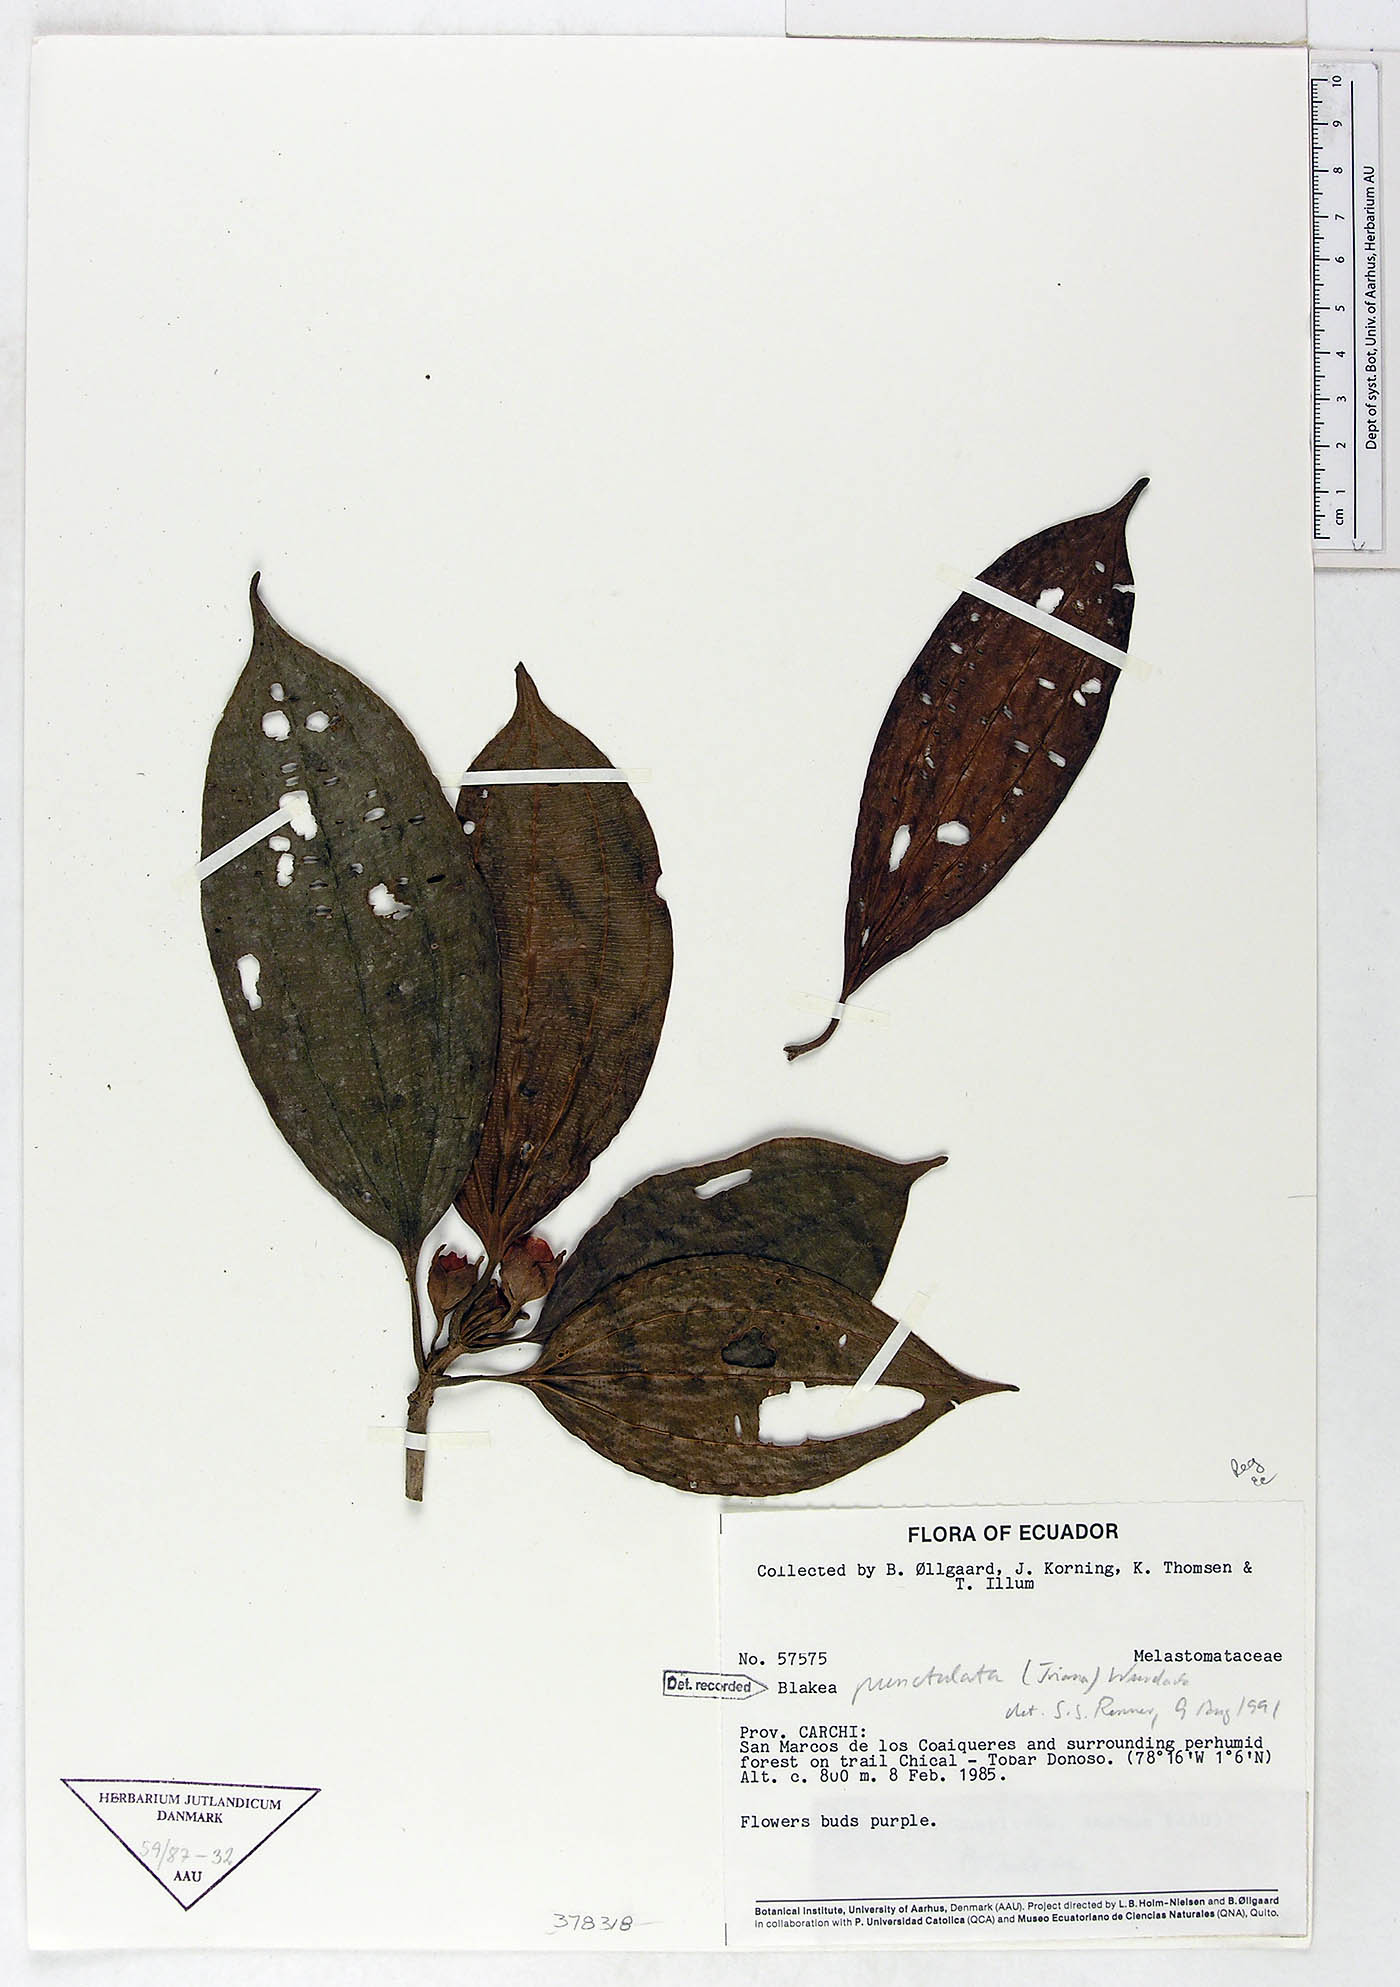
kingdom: Plantae
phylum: Tracheophyta
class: Magnoliopsida
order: Myrtales
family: Melastomataceae
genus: Blakea
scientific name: Blakea punctulata
